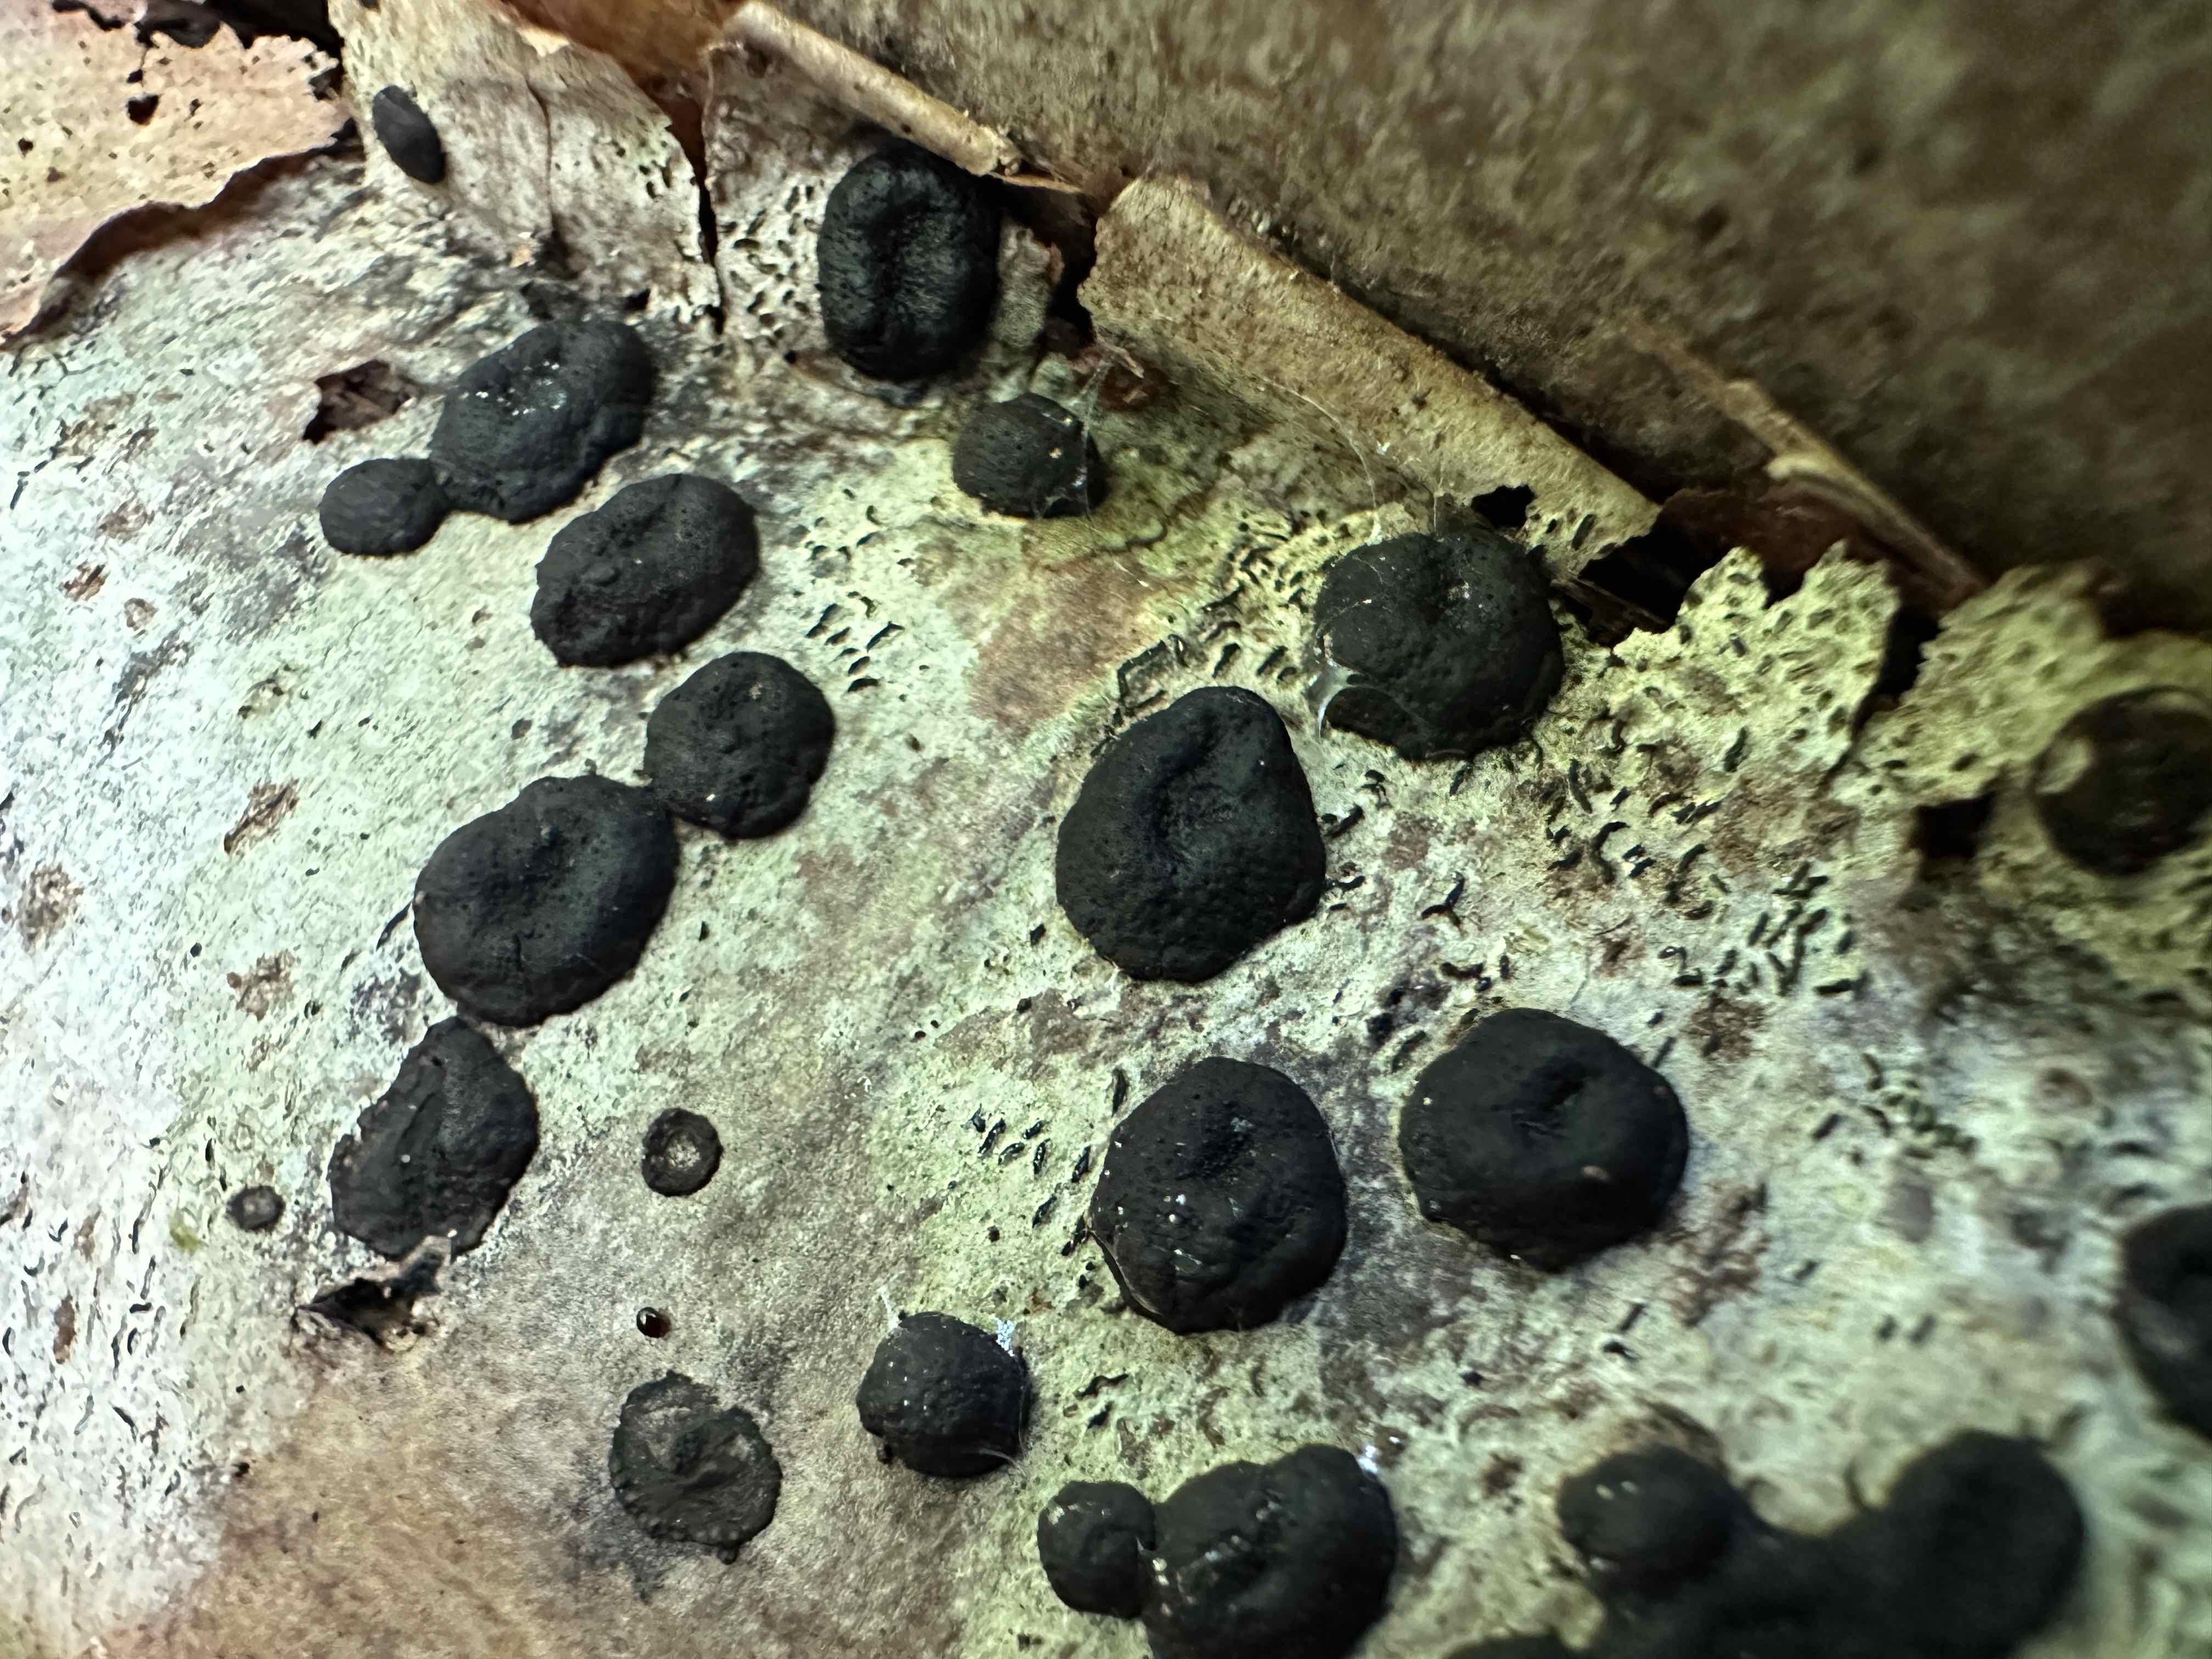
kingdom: Fungi
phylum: Ascomycota
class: Sordariomycetes
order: Xylariales
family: Hypoxylaceae
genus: Hypoxylon
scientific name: Hypoxylon fuscum
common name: kegleformet kulbær
